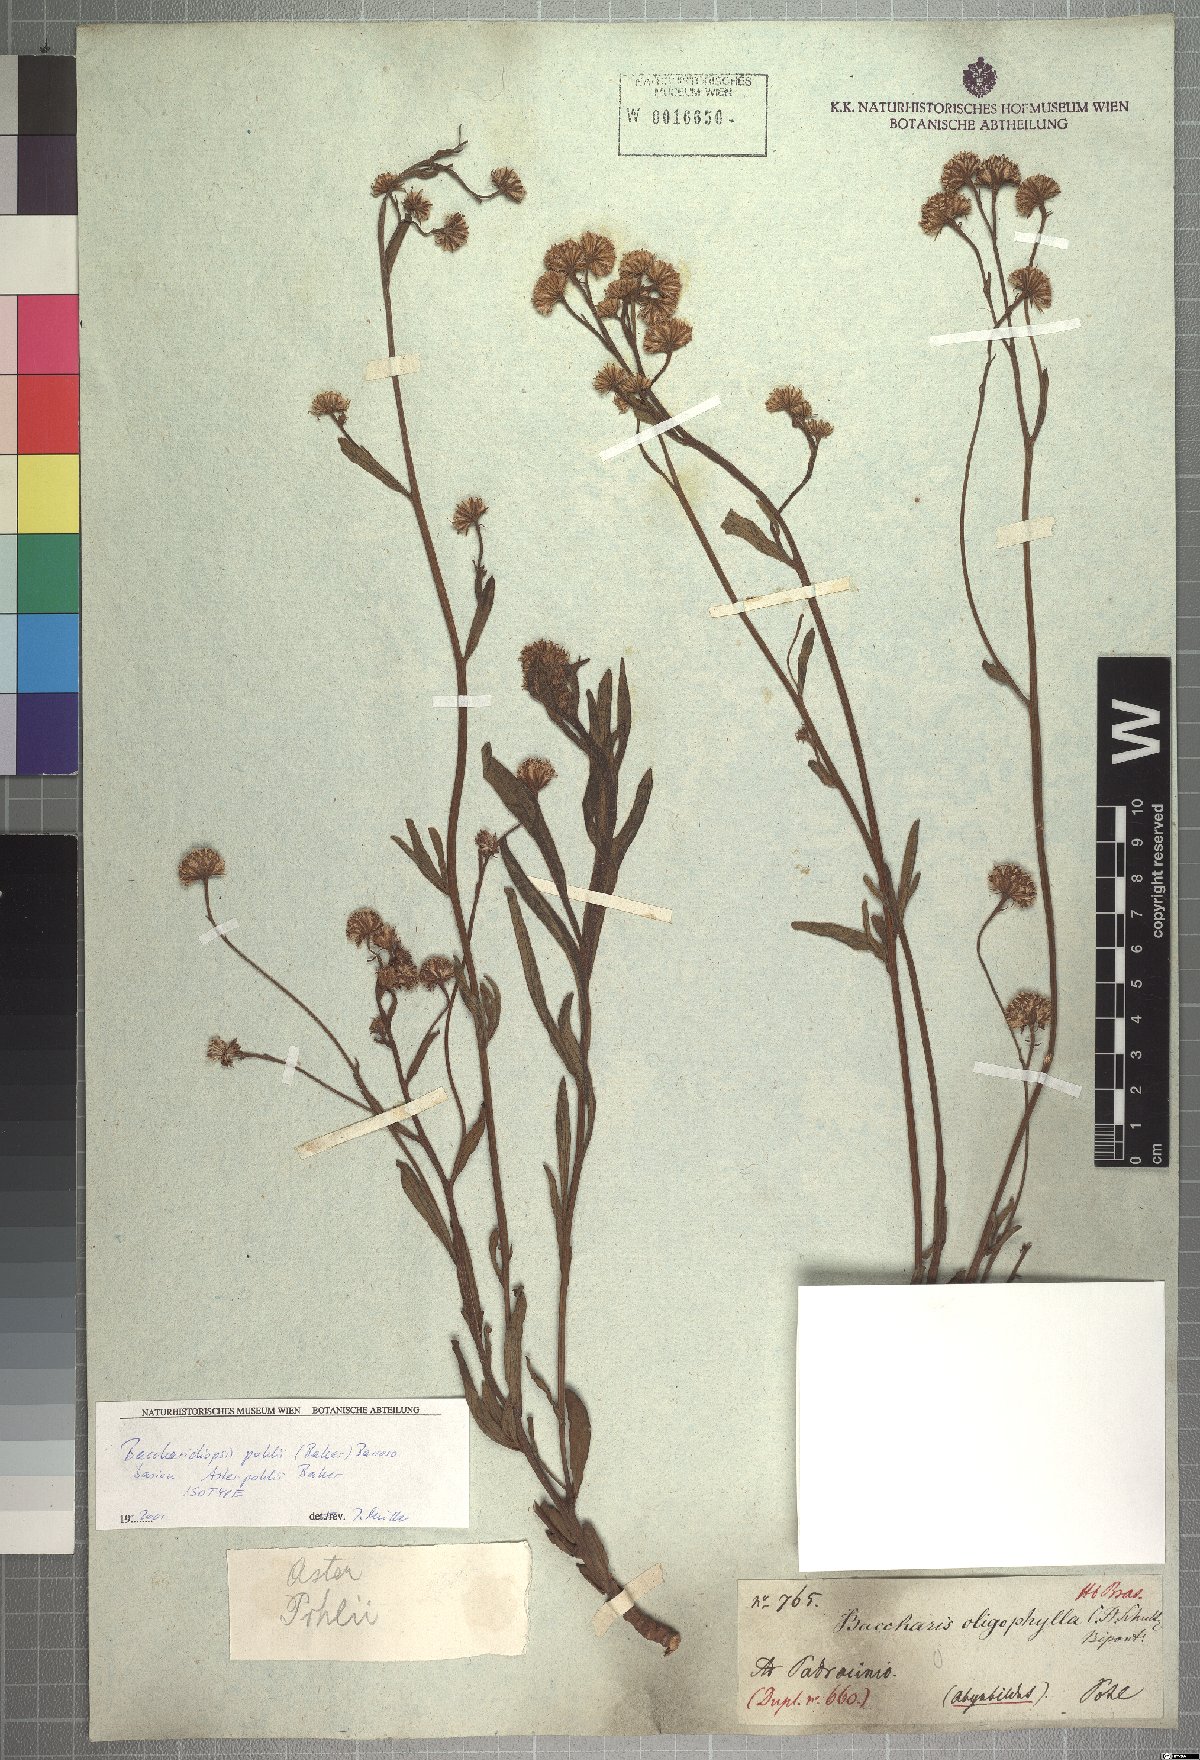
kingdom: Plantae
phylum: Tracheophyta
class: Magnoliopsida
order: Asterales
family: Asteraceae
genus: Baccharis
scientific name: Baccharis pohlii
